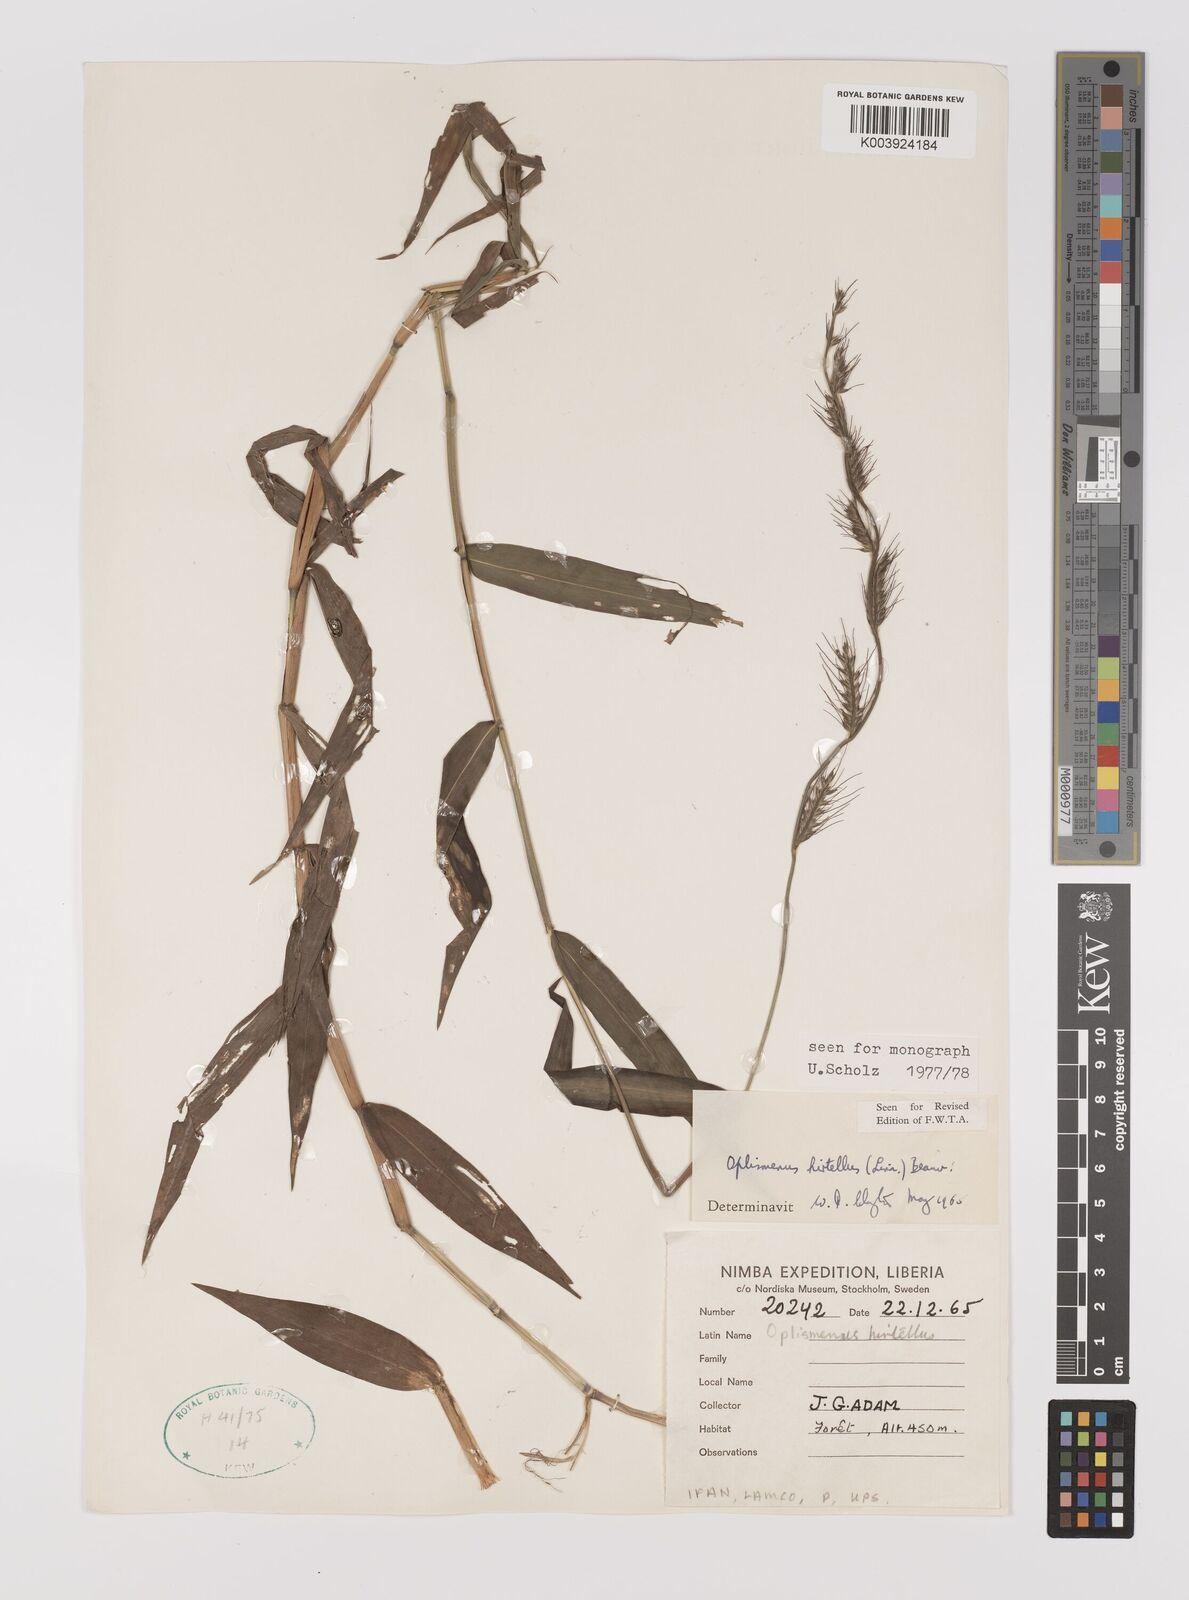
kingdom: Plantae
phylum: Tracheophyta
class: Liliopsida
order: Poales
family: Poaceae
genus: Oplismenus
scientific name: Oplismenus hirtellus
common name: Basketgrass
